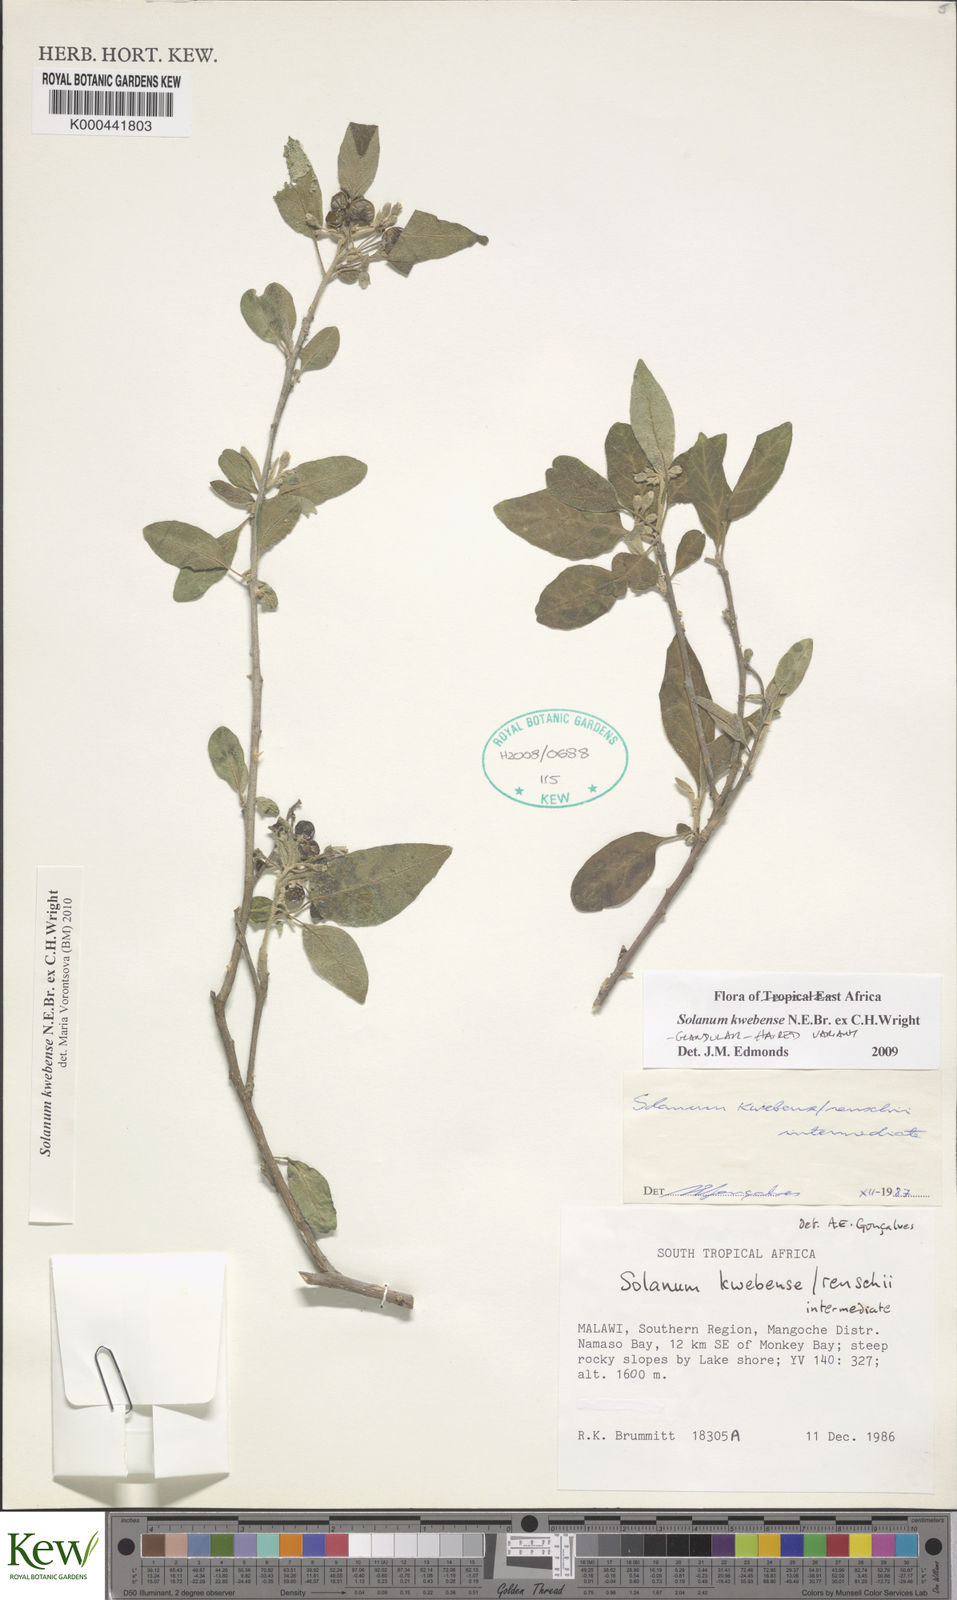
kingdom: Plantae
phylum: Tracheophyta
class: Magnoliopsida
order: Solanales
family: Solanaceae
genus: Solanum
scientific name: Solanum tettense
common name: Mozambique bitter apple
